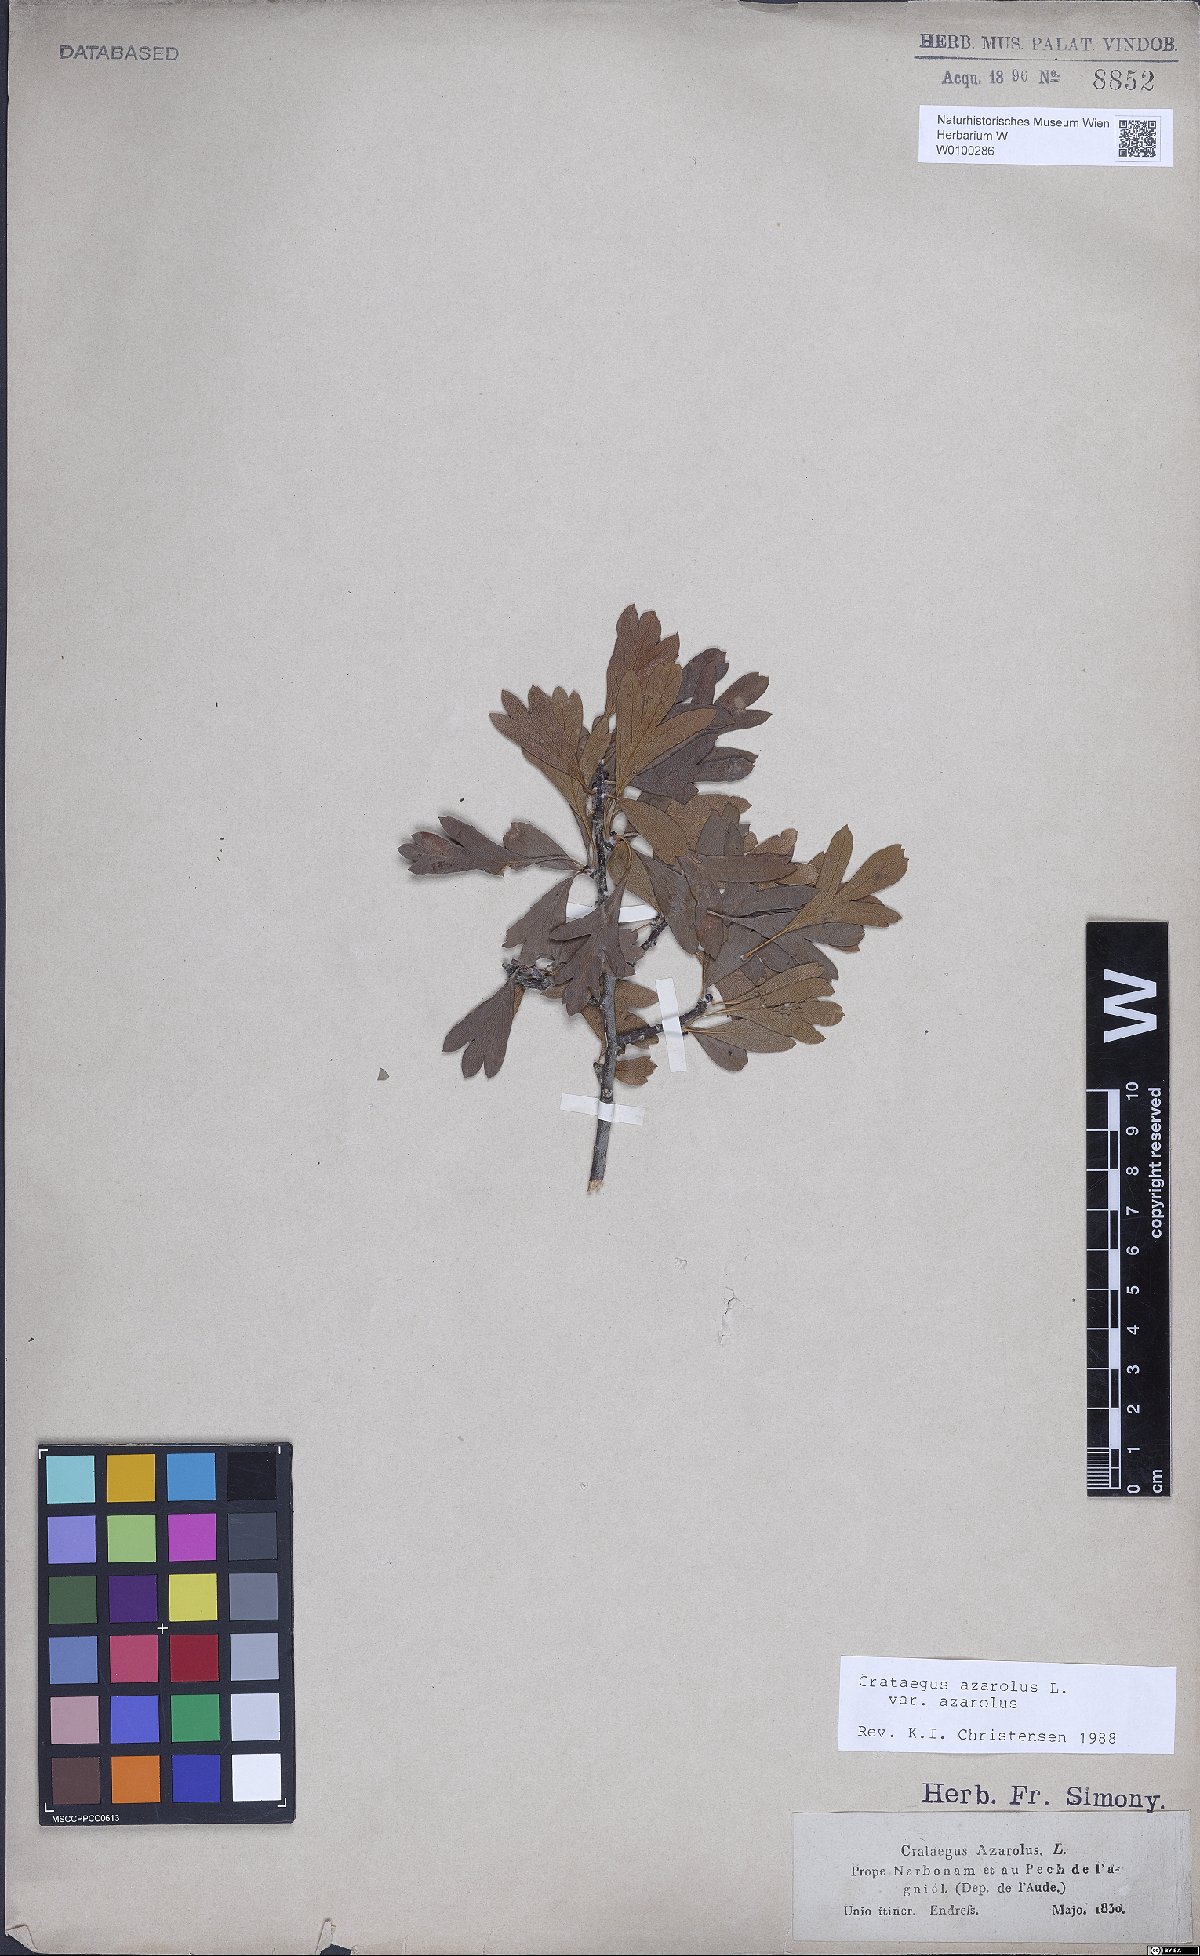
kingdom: Plantae
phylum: Tracheophyta
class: Magnoliopsida
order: Rosales
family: Rosaceae
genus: Crataegus
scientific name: Crataegus azarolus
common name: Azarole
